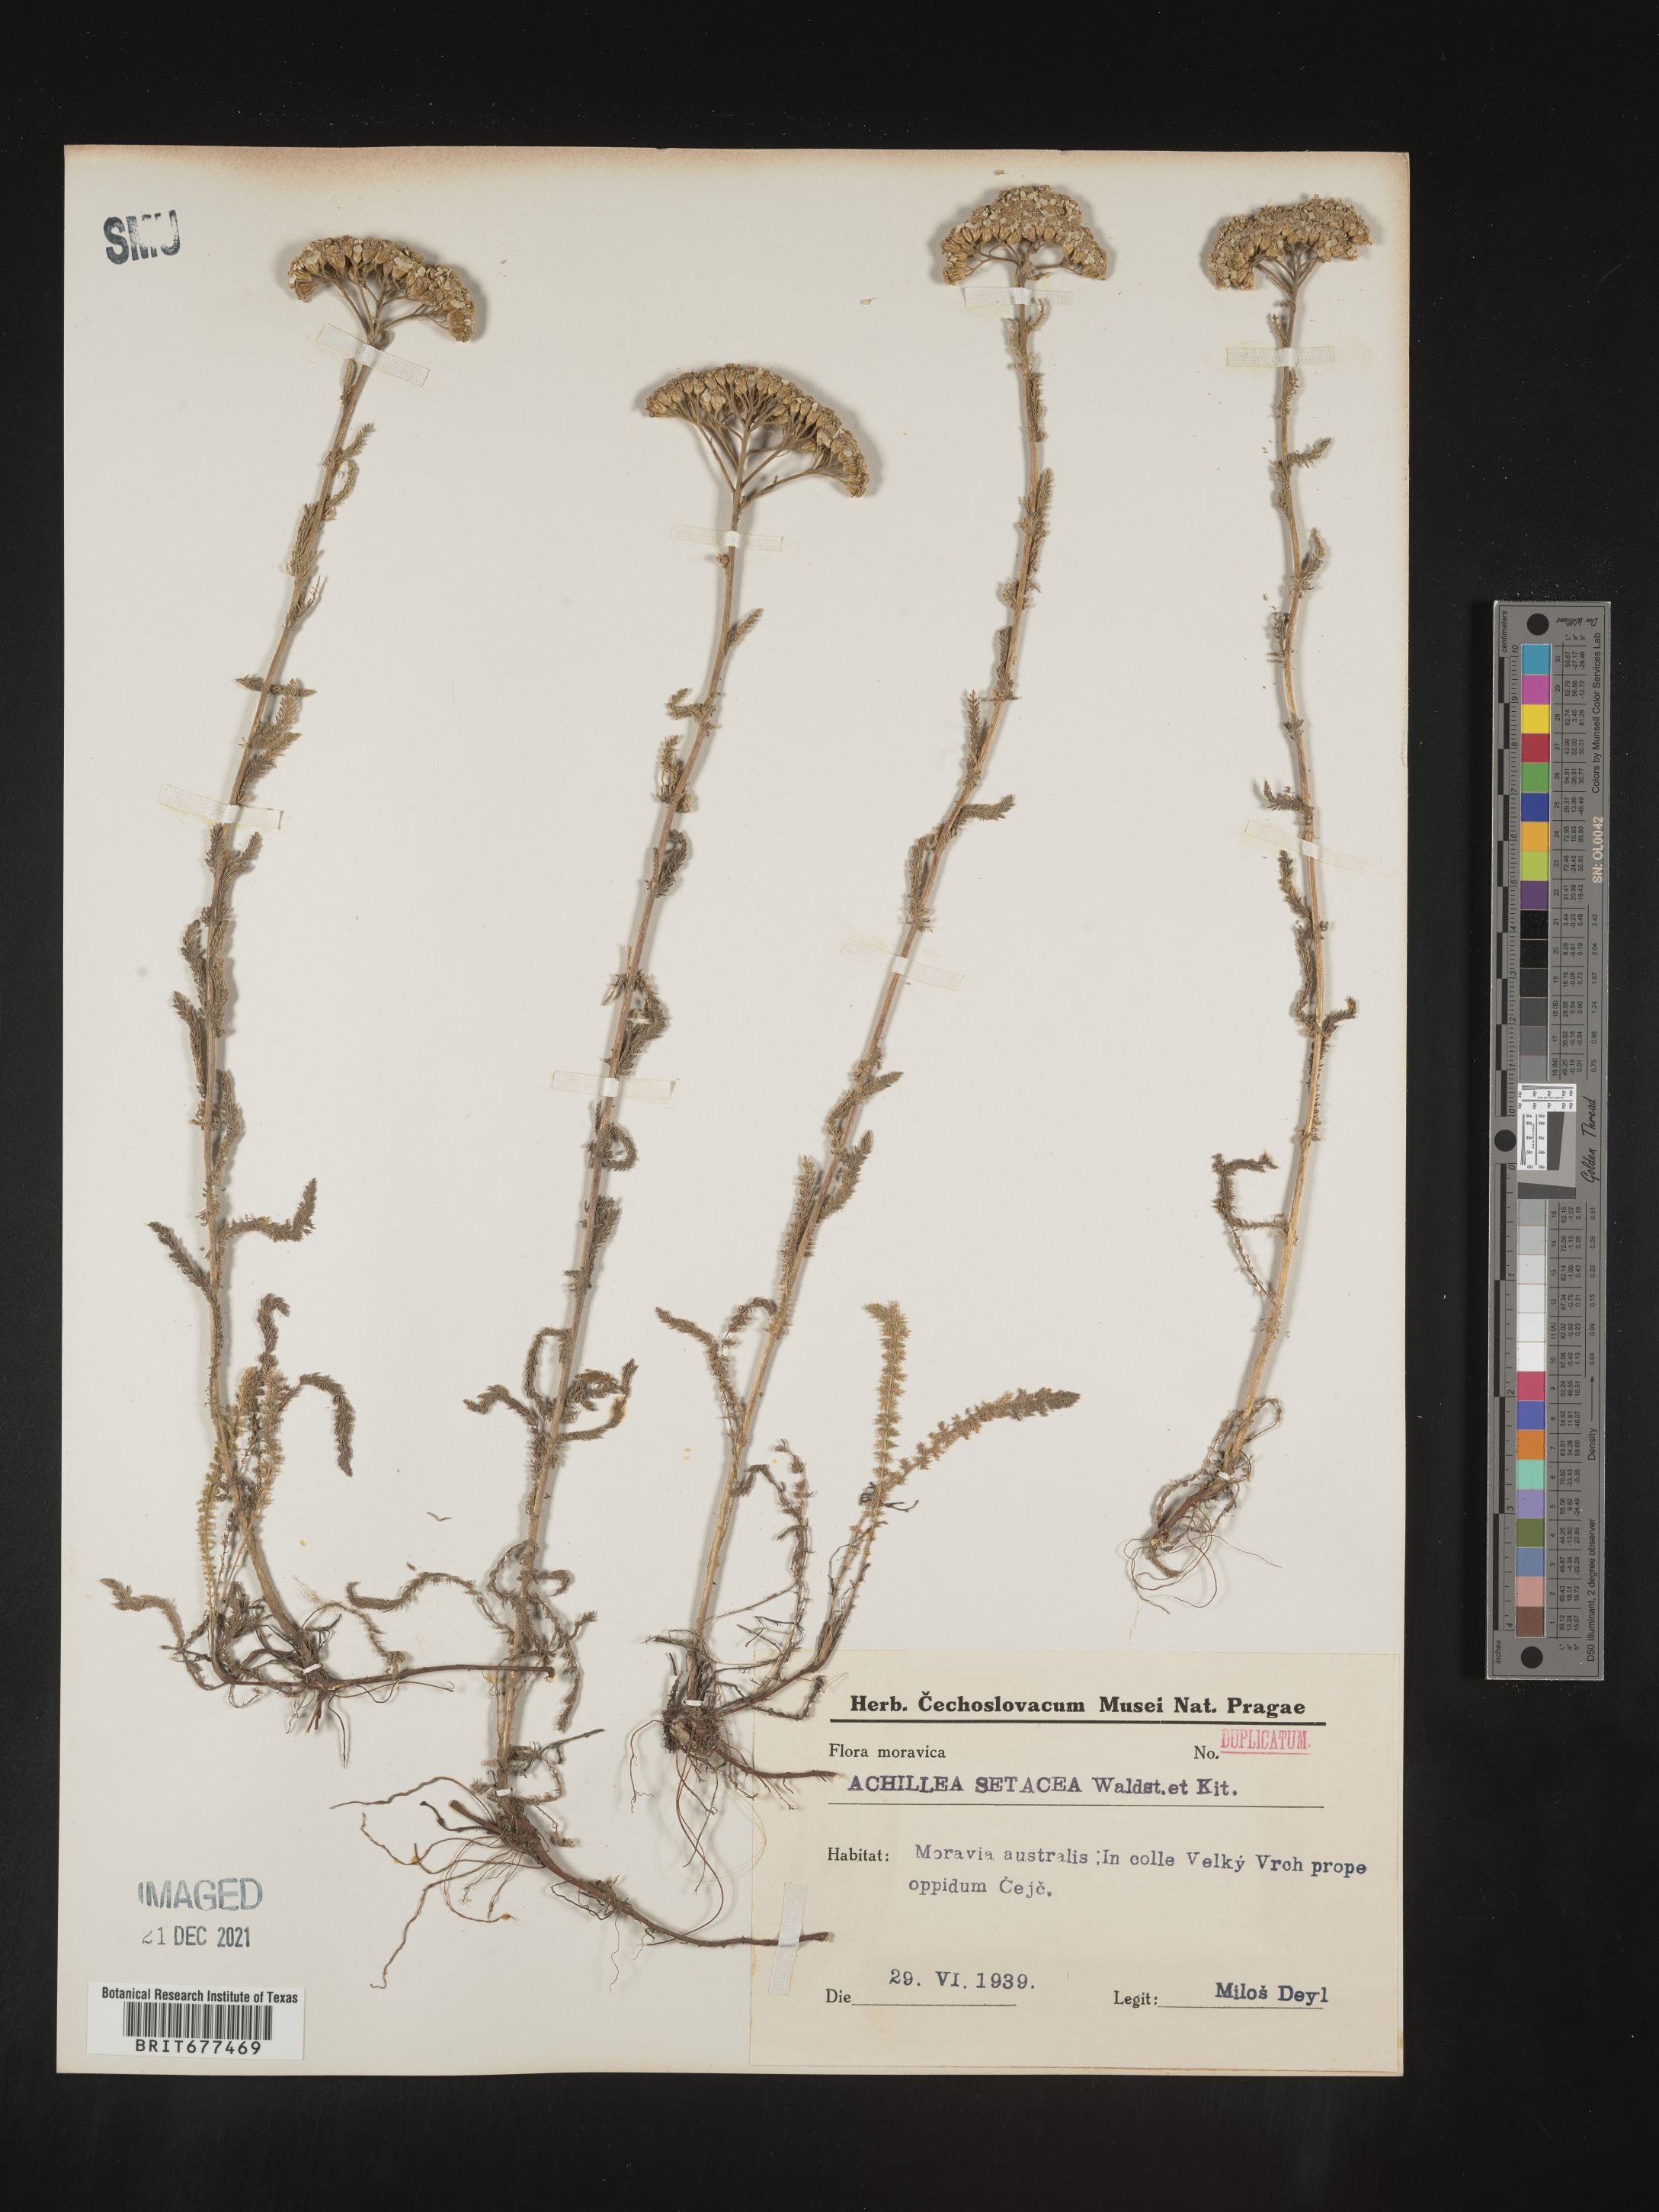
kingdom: Plantae
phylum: Tracheophyta
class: Magnoliopsida
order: Asterales
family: Asteraceae
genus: Achillea
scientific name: Achillea
